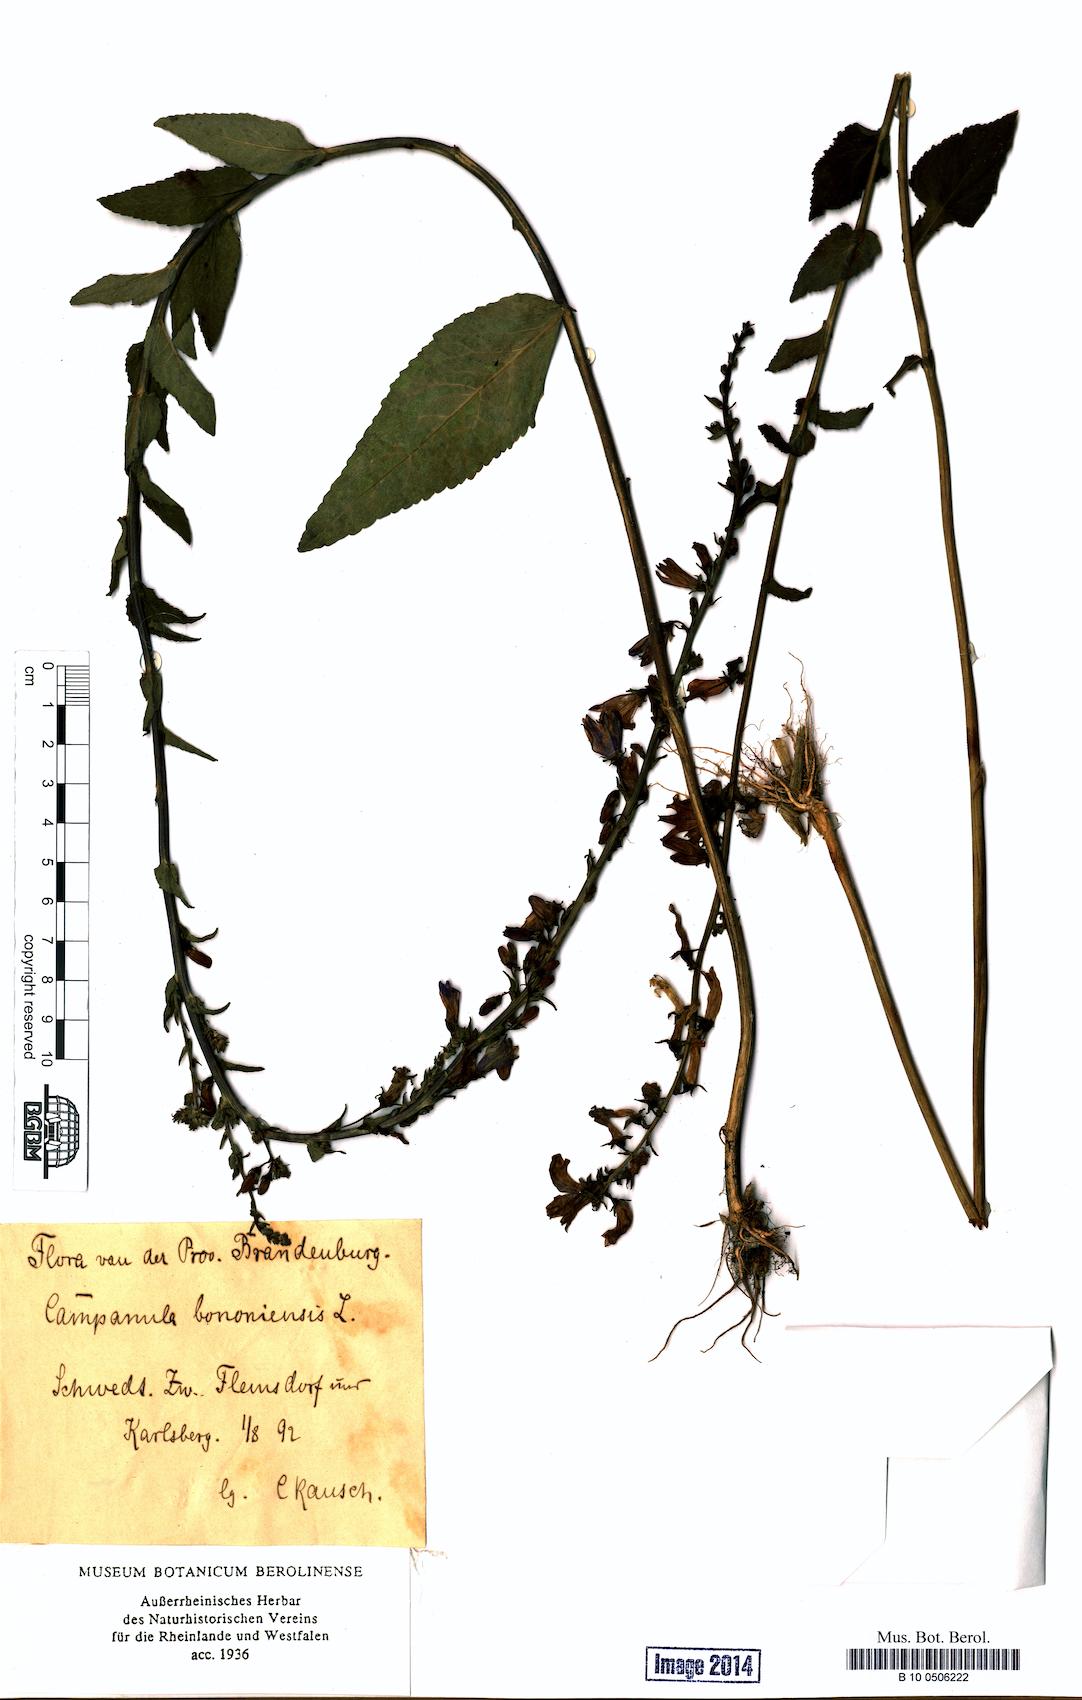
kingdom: Plantae
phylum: Tracheophyta
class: Magnoliopsida
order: Asterales
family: Campanulaceae
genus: Campanula
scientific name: Campanula bononiensis
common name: Pale bellflower
